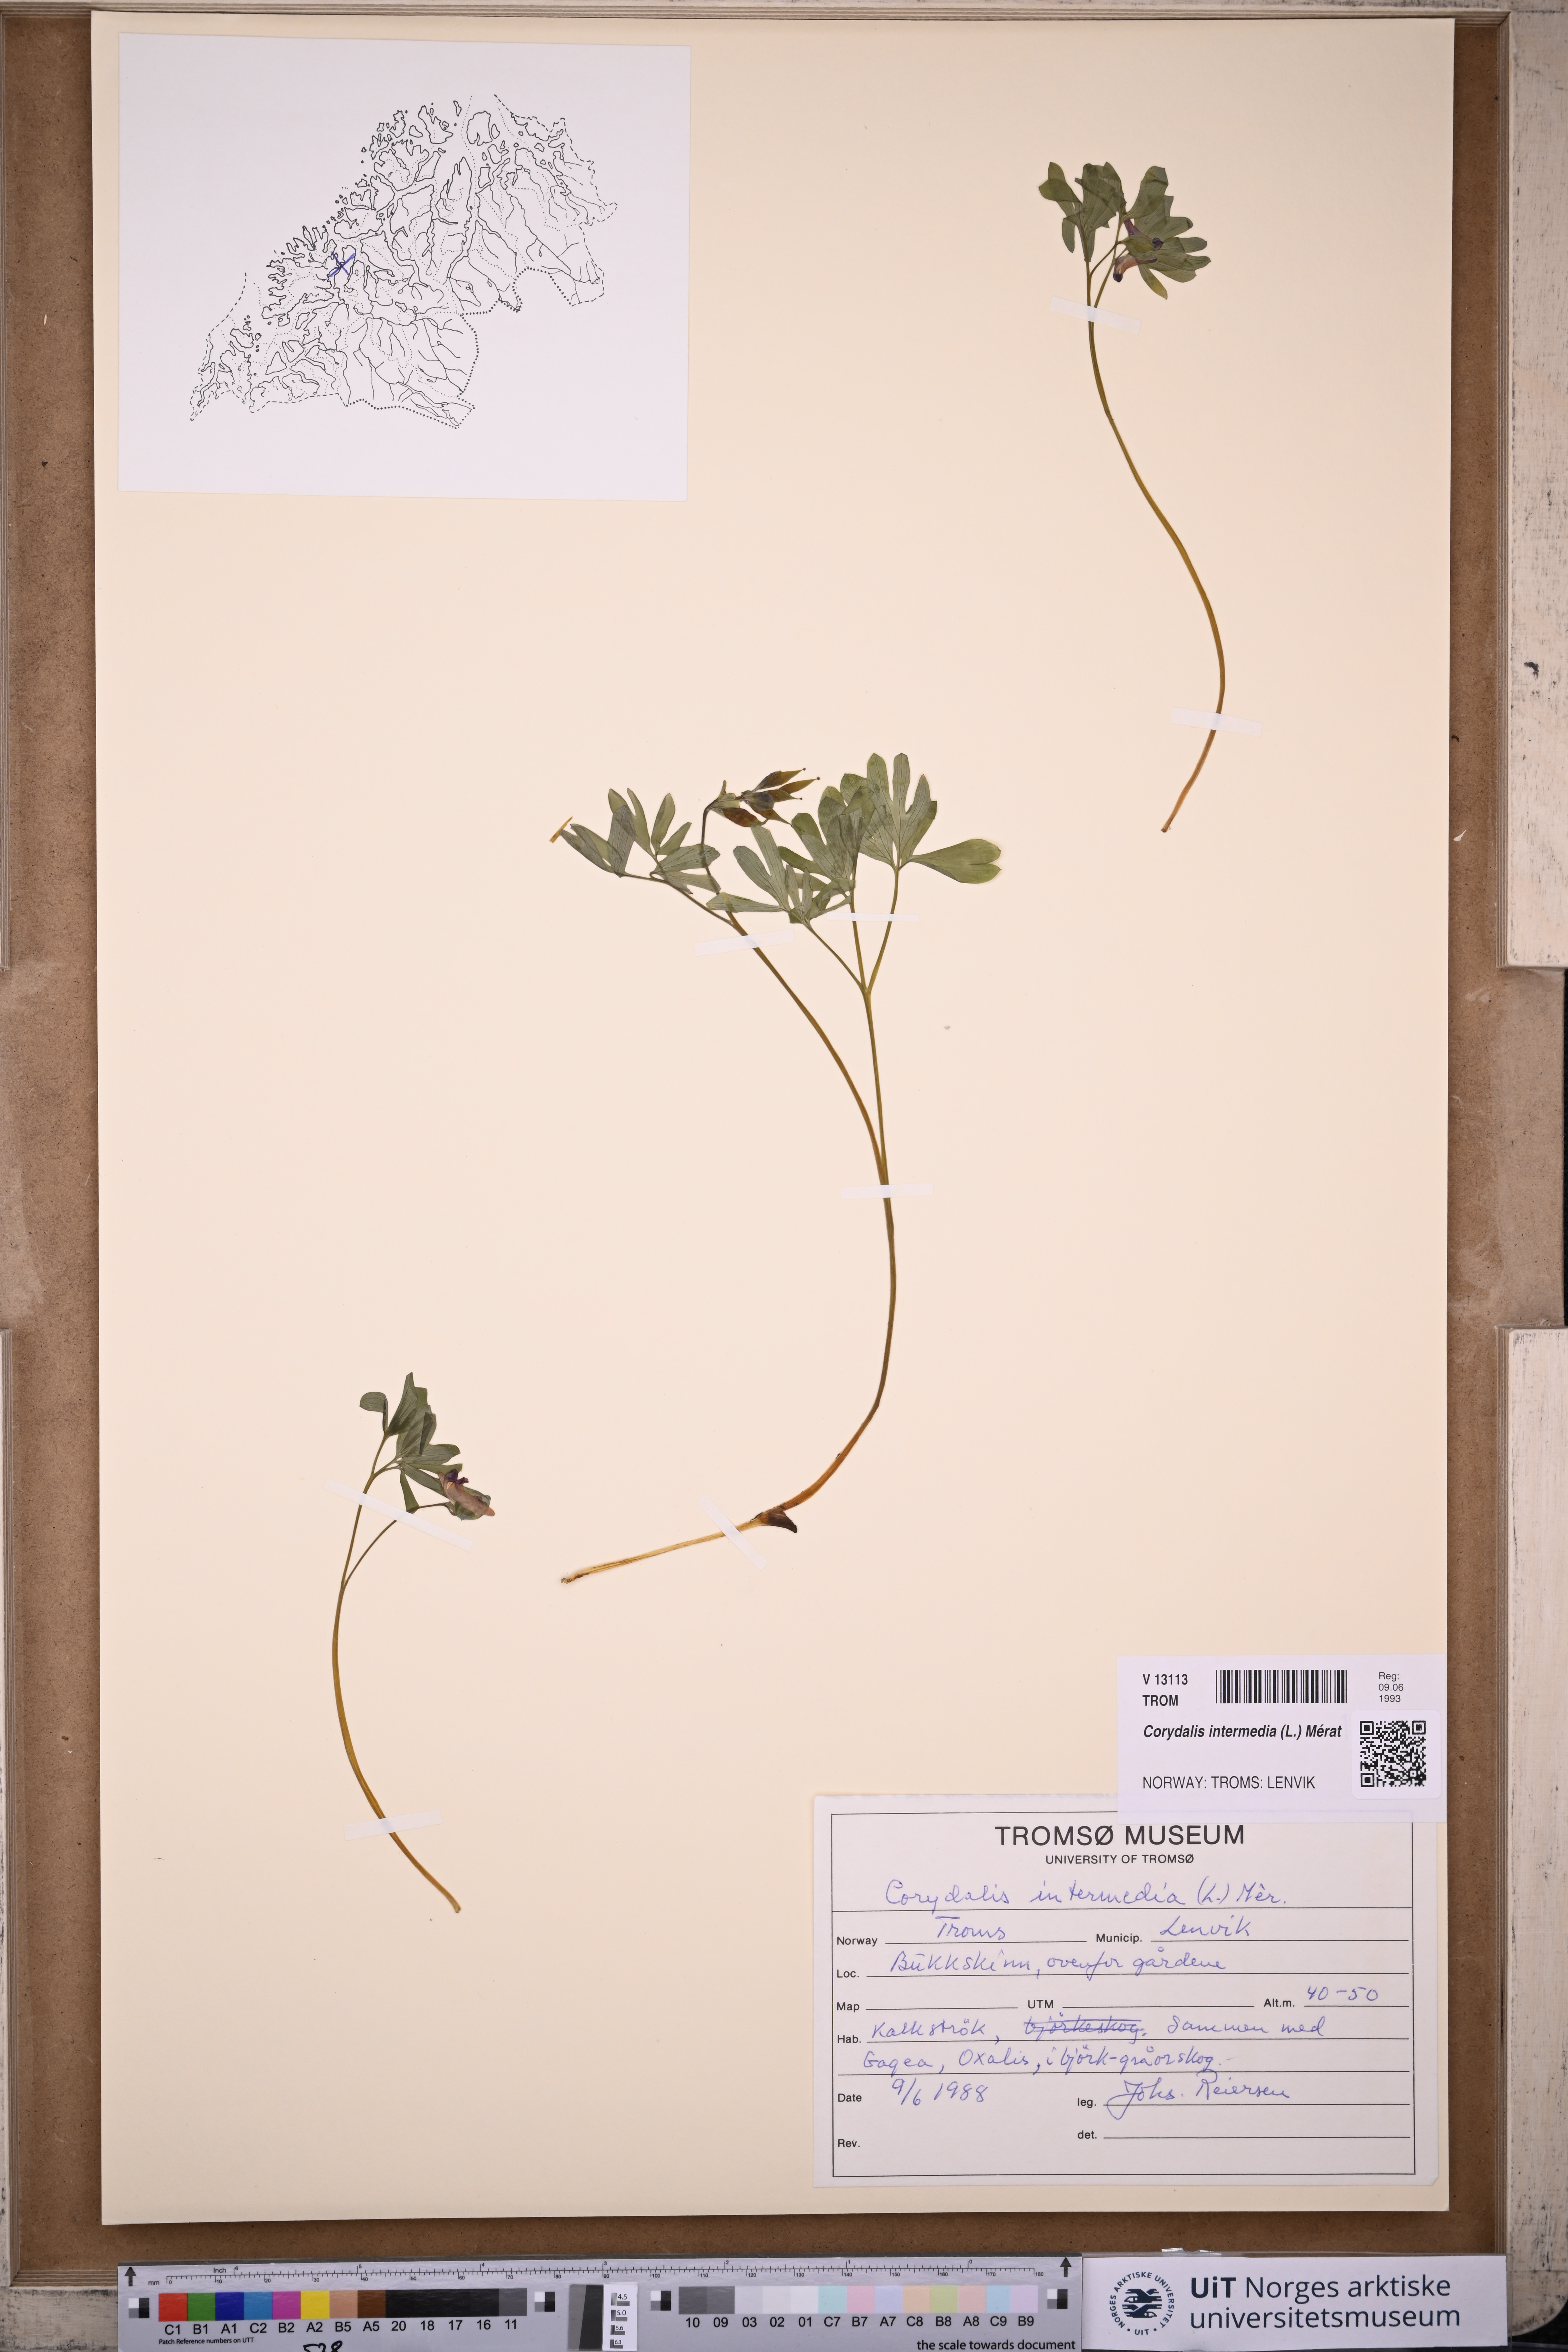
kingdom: Plantae
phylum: Tracheophyta
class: Magnoliopsida
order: Ranunculales
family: Papaveraceae
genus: Corydalis
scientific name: Corydalis intermedia
